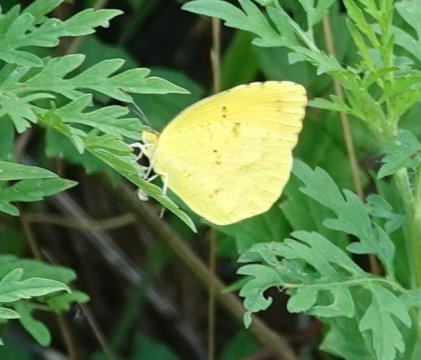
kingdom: Animalia
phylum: Arthropoda
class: Insecta
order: Lepidoptera
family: Pieridae
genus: Abaeis
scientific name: Abaeis nicippe
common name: Sleepy Orange
